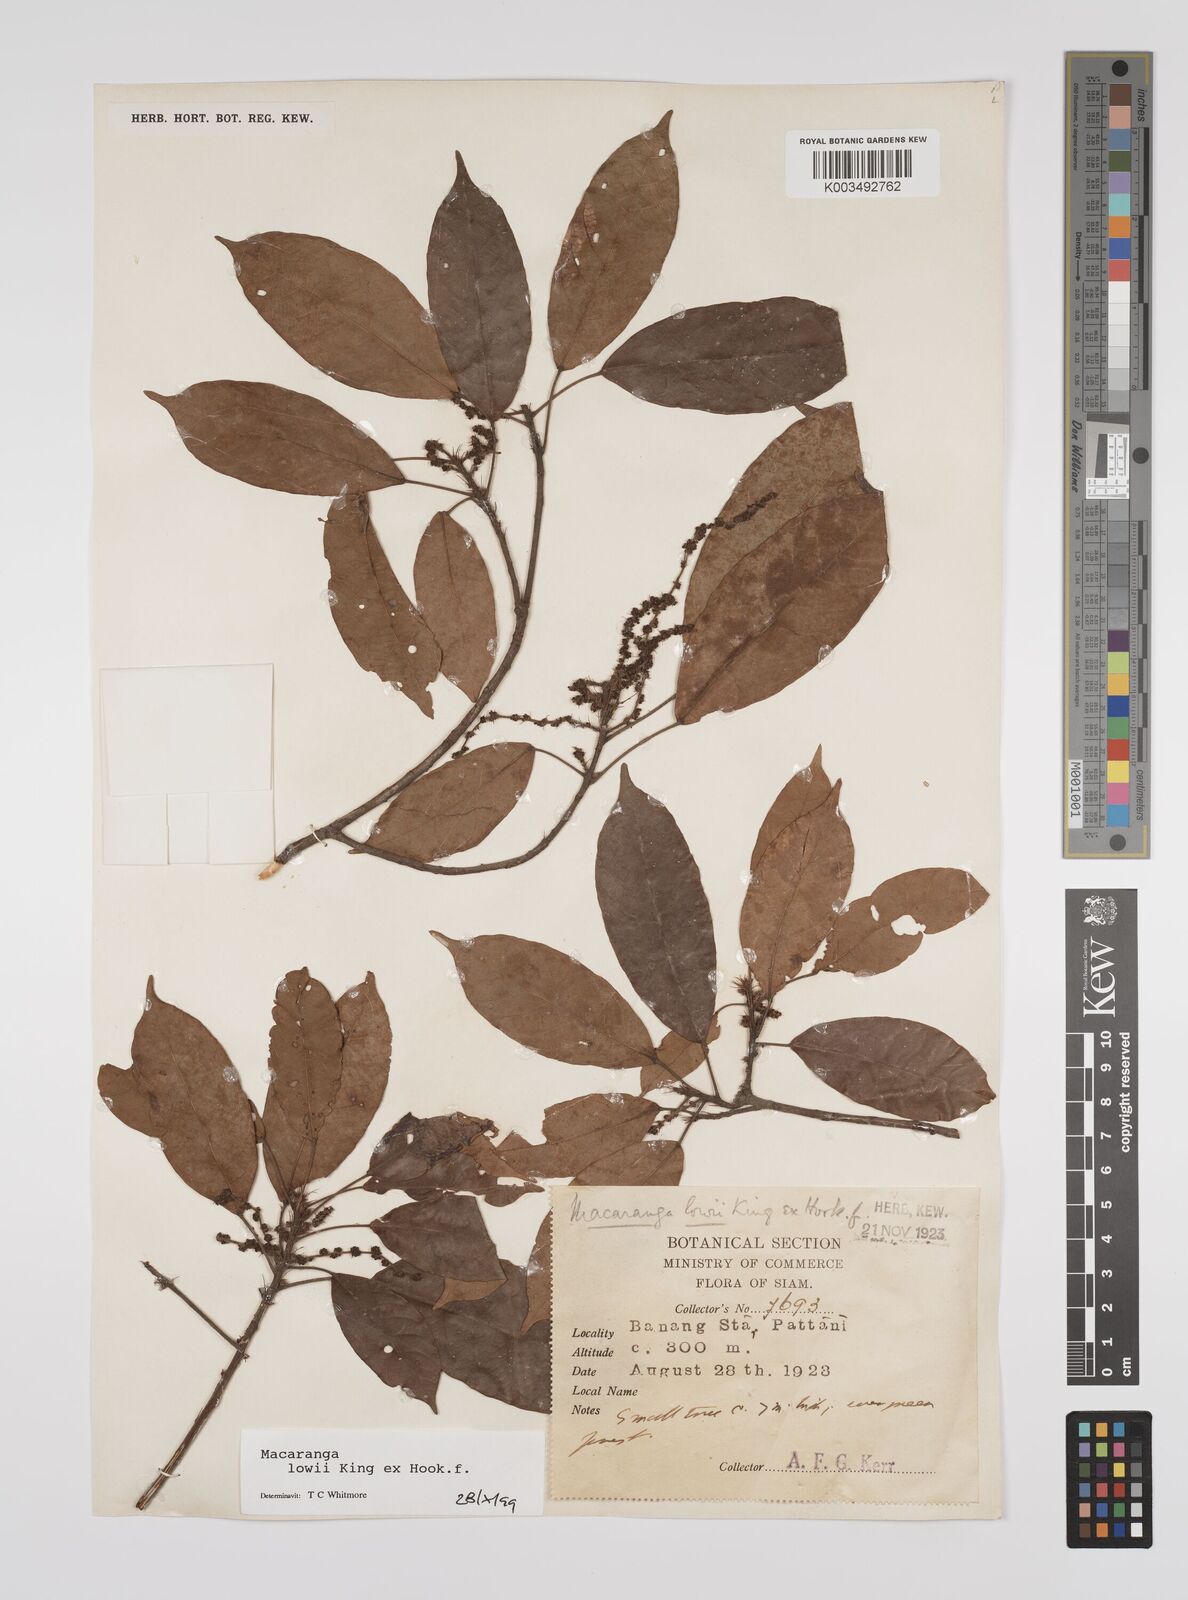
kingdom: Plantae
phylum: Tracheophyta
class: Magnoliopsida
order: Malpighiales
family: Euphorbiaceae
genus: Macaranga
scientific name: Macaranga lowii
